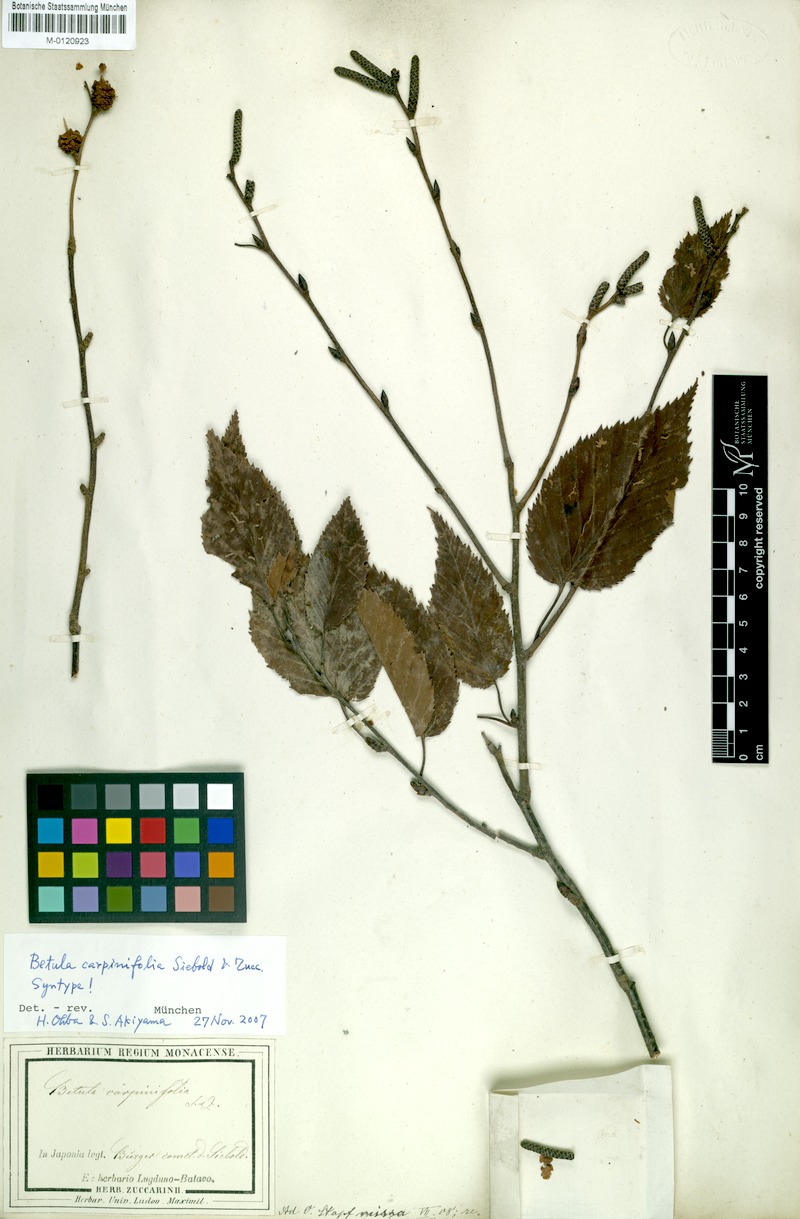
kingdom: Plantae
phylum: Tracheophyta
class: Magnoliopsida
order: Fagales
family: Betulaceae
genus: Betula
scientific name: Betula grossa
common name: Japanese cherry birch
